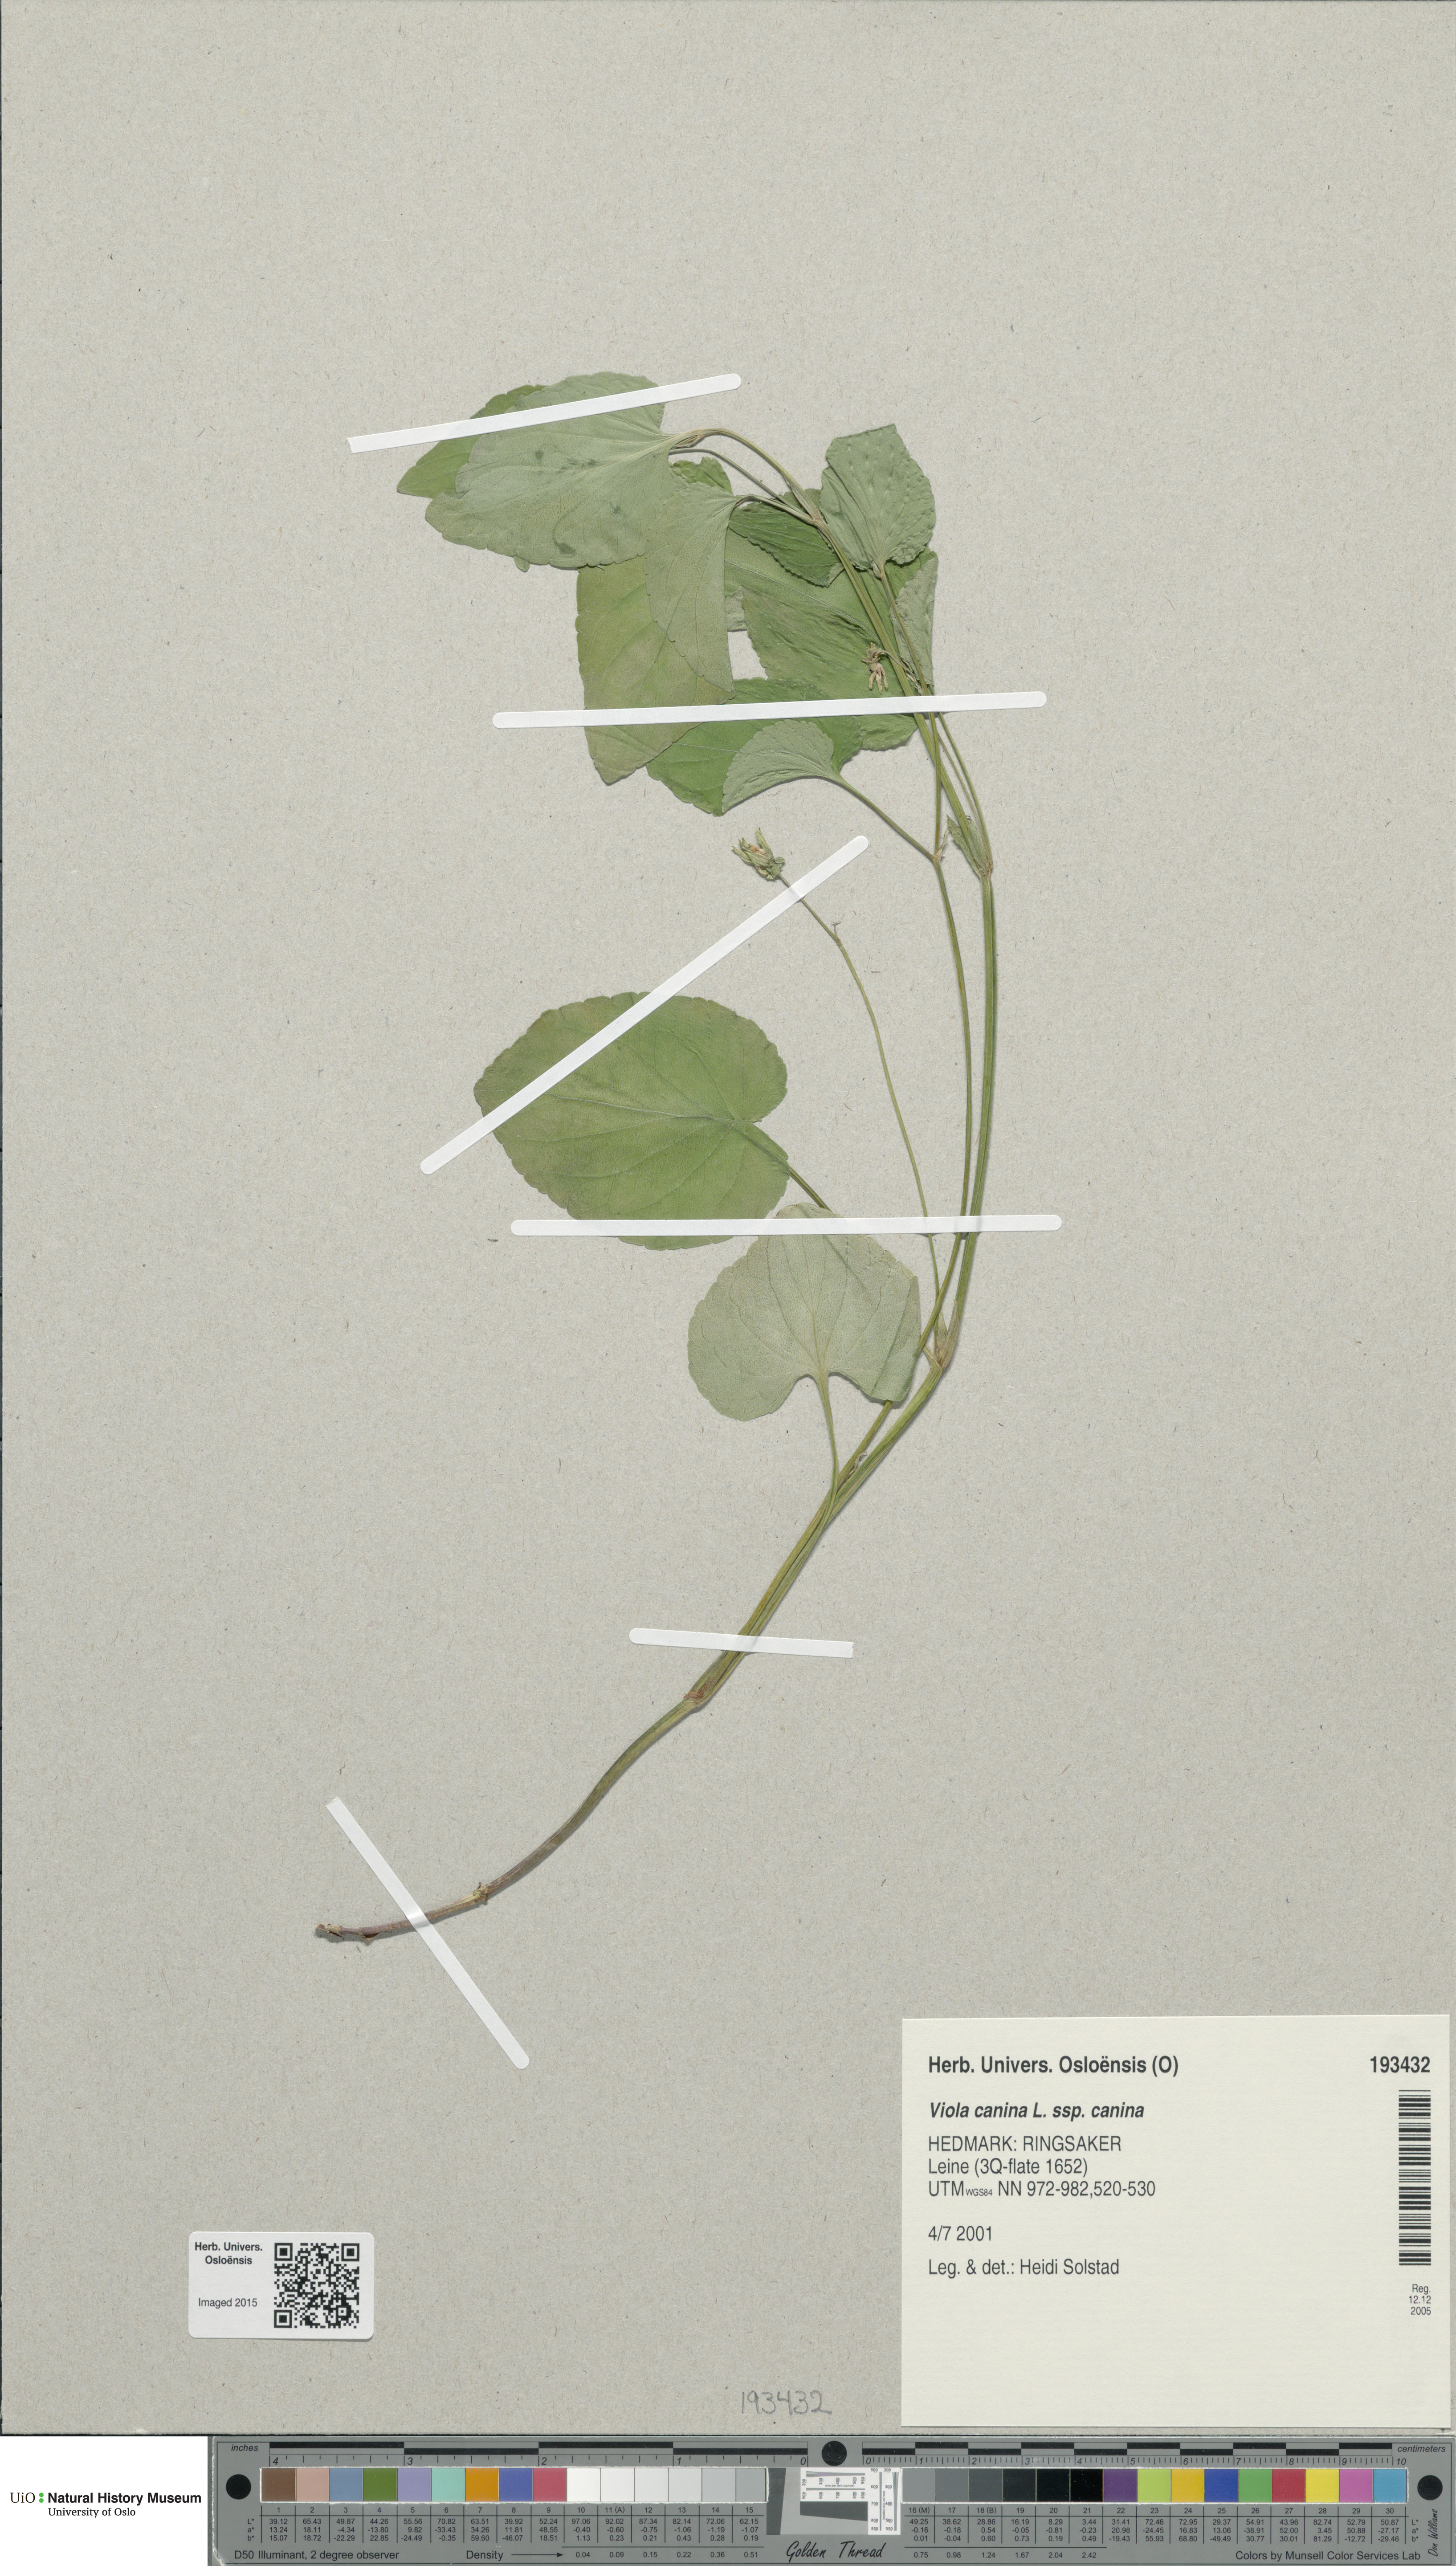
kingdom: Plantae
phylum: Tracheophyta
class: Magnoliopsida
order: Malpighiales
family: Violaceae
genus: Viola
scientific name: Viola canina
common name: Heath dog-violet
